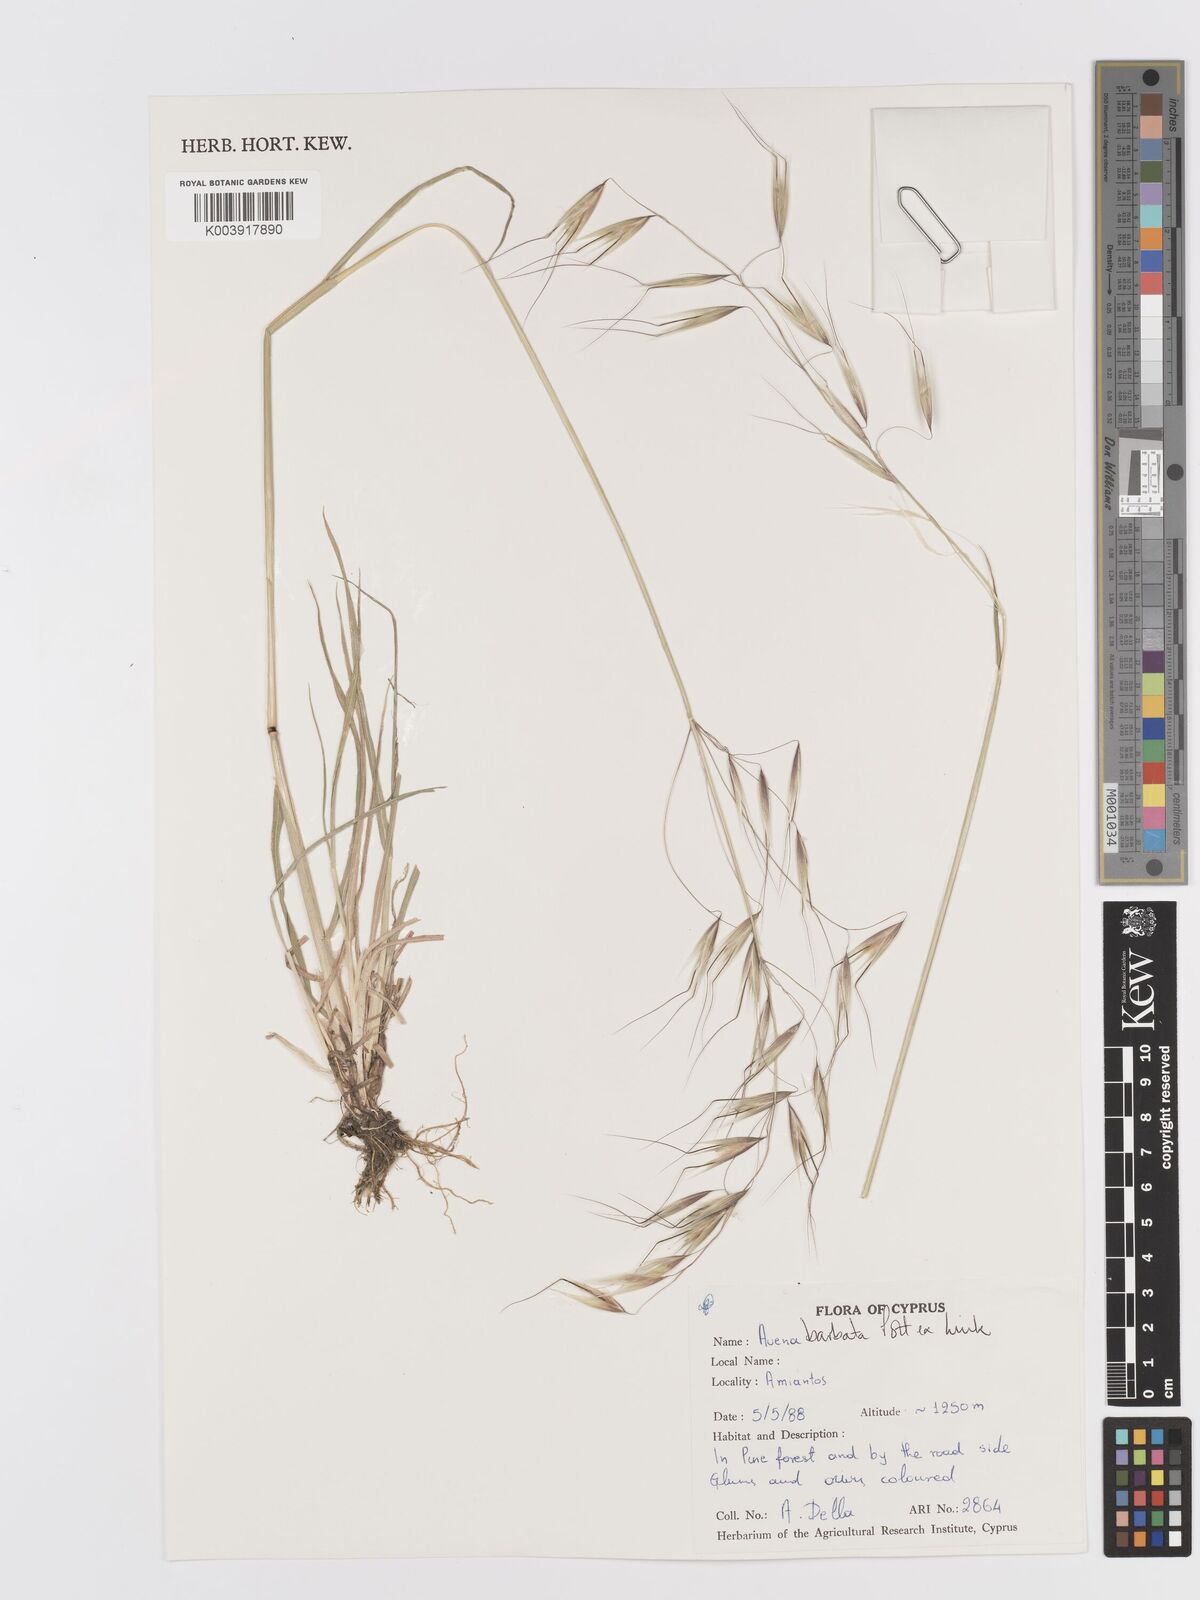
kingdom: Plantae
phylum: Tracheophyta
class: Liliopsida
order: Poales
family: Poaceae
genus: Avena
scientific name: Avena
